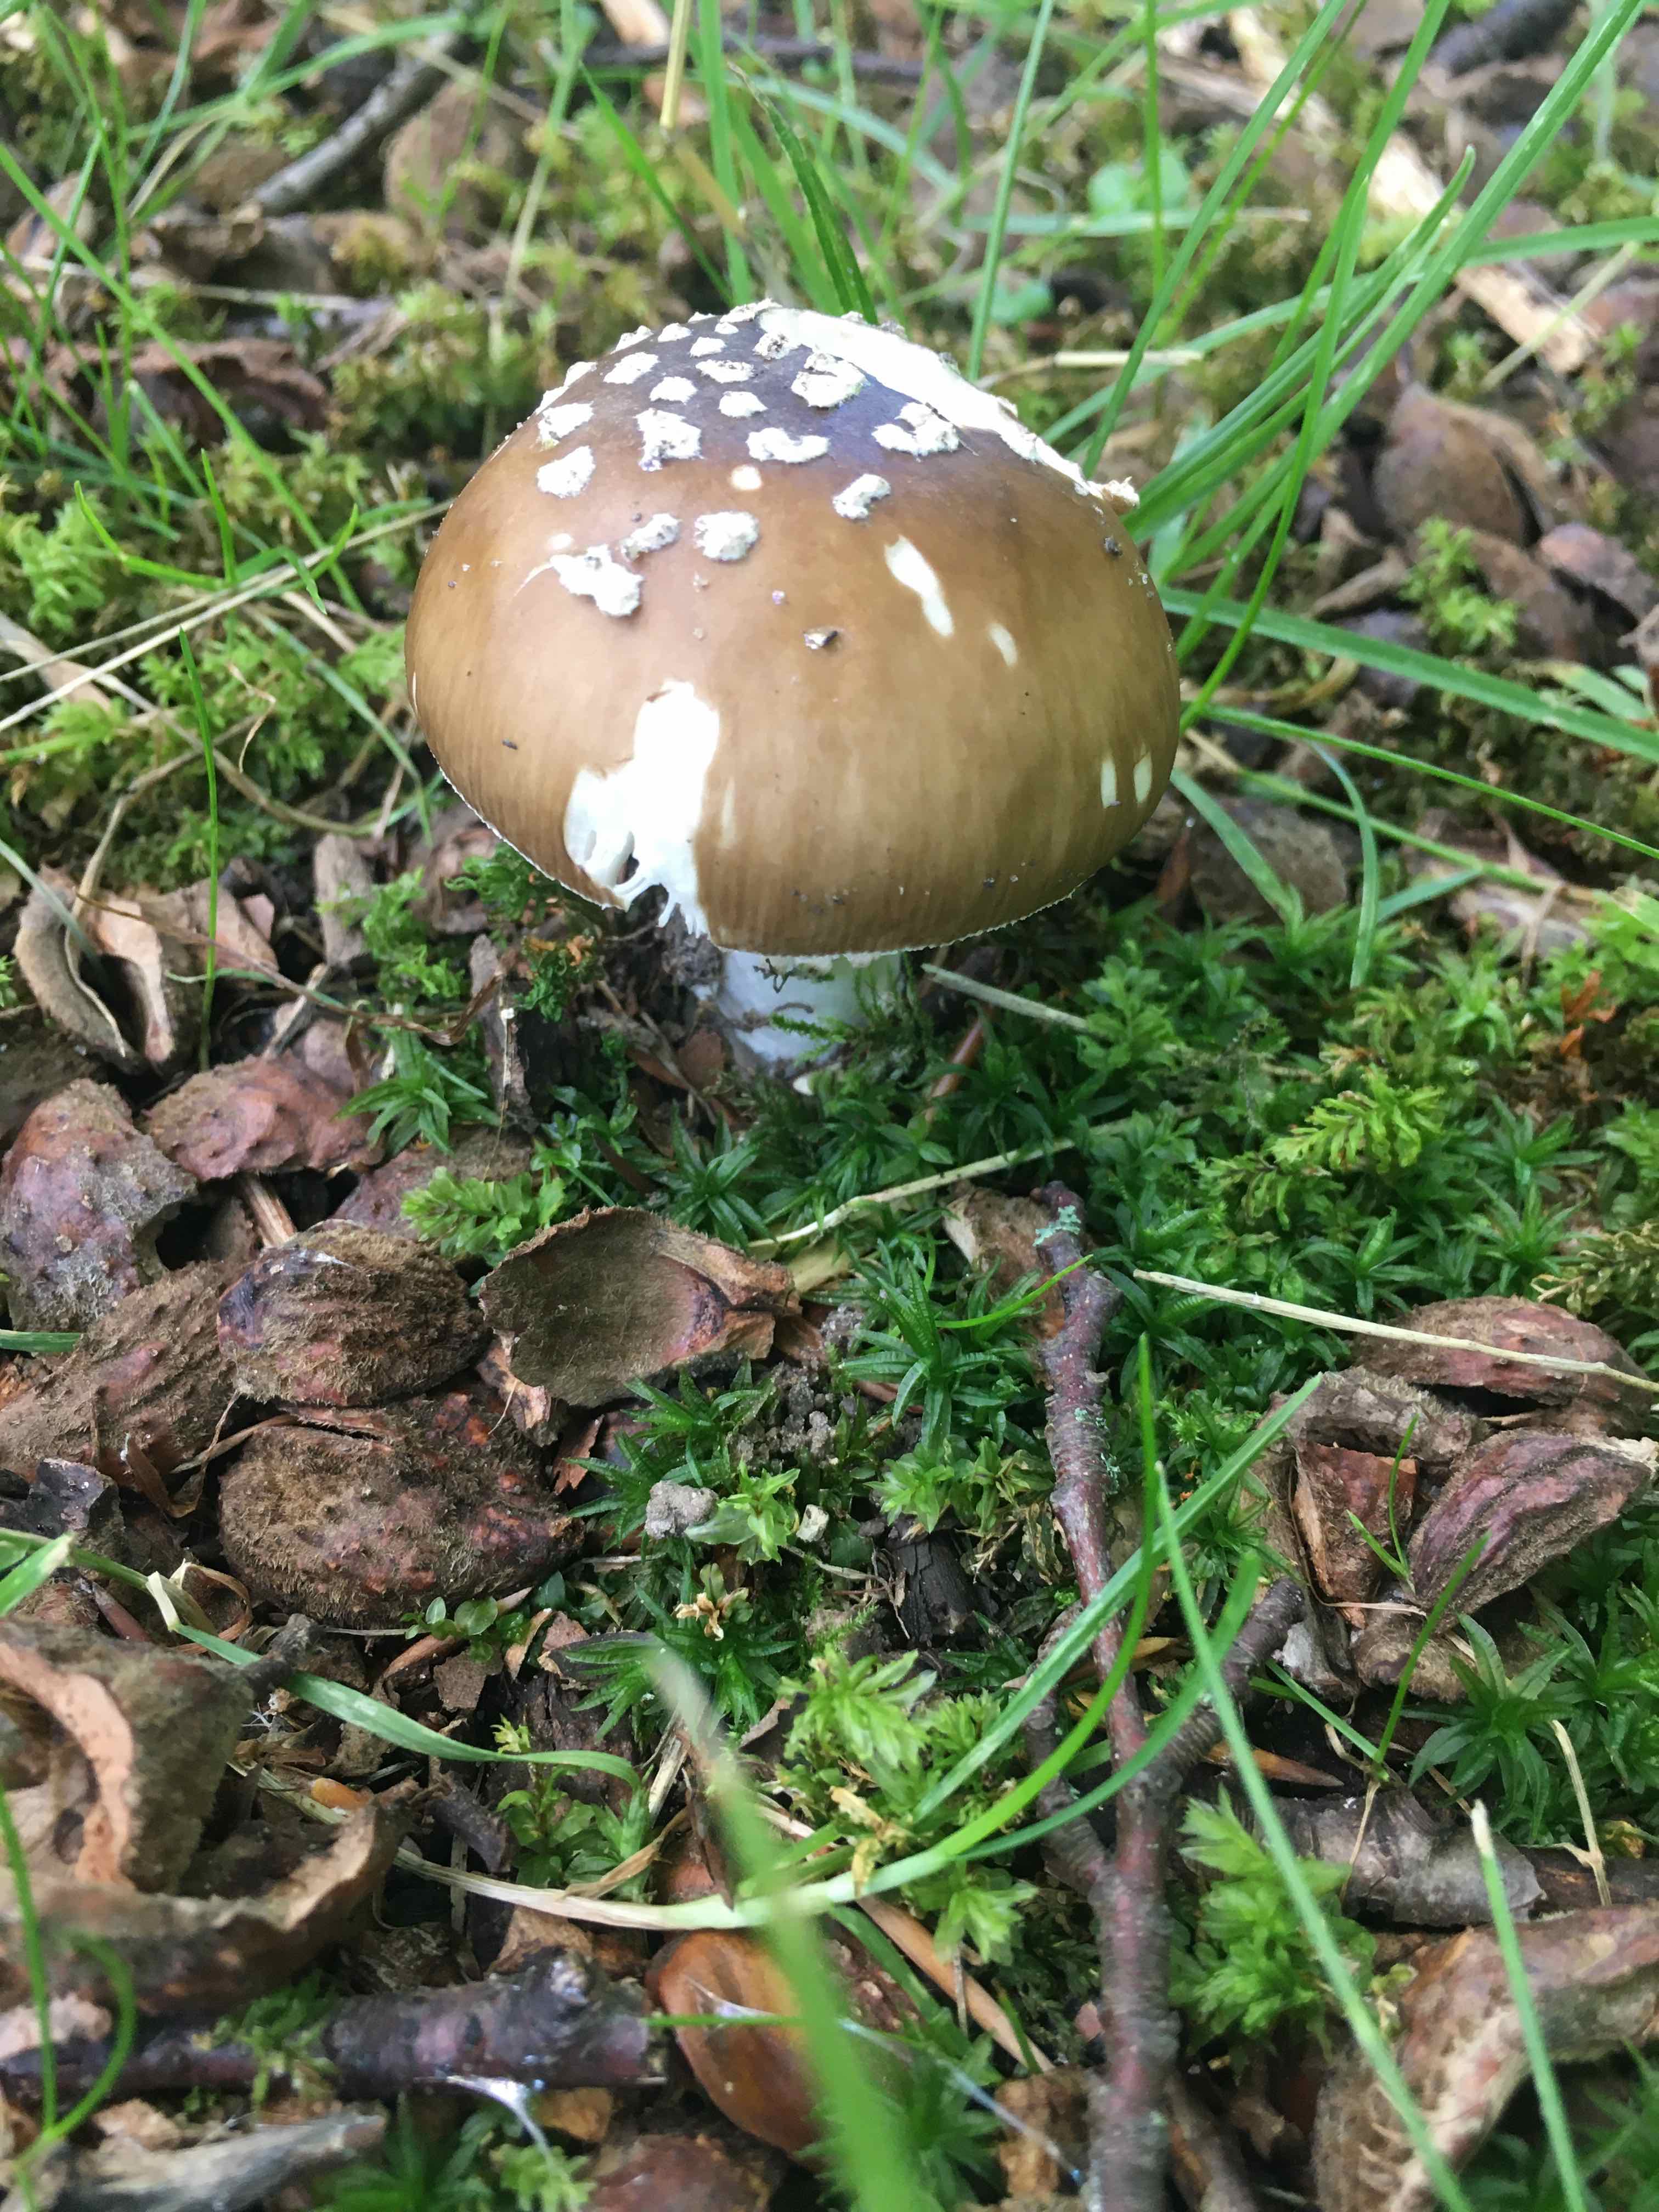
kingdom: Fungi
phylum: Basidiomycota
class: Agaricomycetes
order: Agaricales
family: Amanitaceae
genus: Amanita
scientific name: Amanita pantherina
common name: panter-fluesvamp
